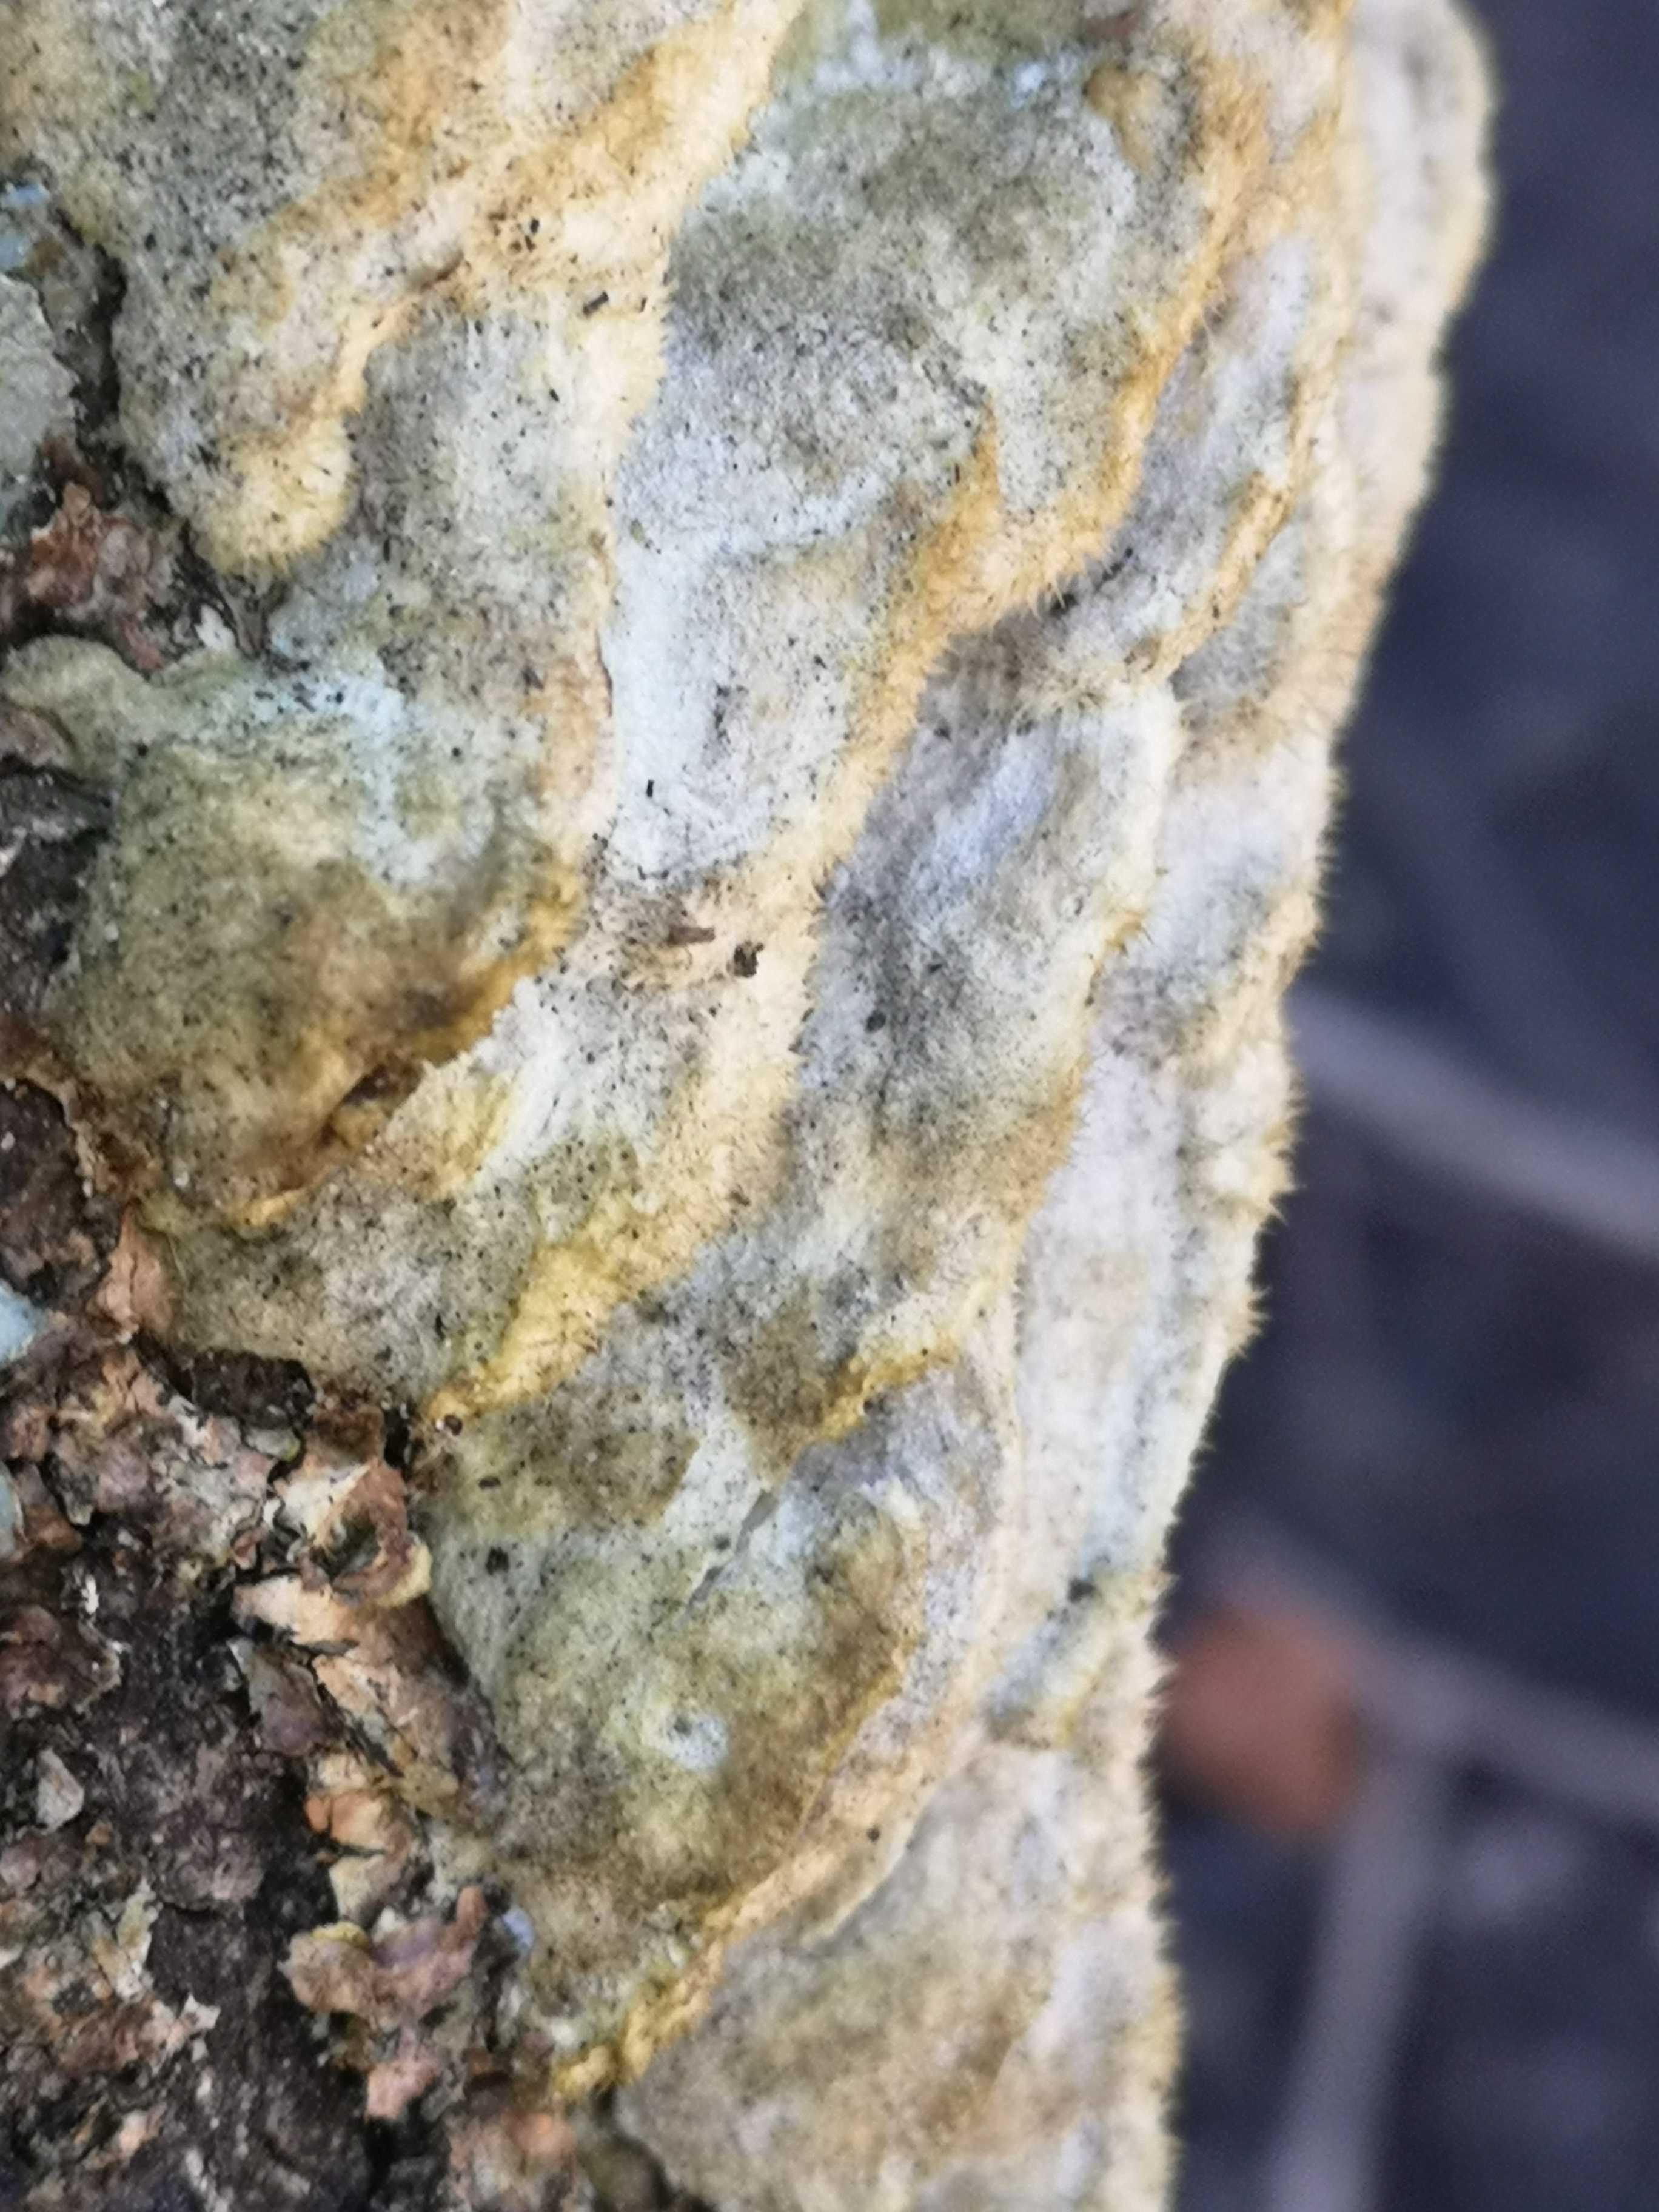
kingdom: Fungi
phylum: Basidiomycota
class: Agaricomycetes
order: Polyporales
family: Irpicaceae
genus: Vitreoporus
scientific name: Vitreoporus dichrous
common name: tofarvet foldporesvamp
